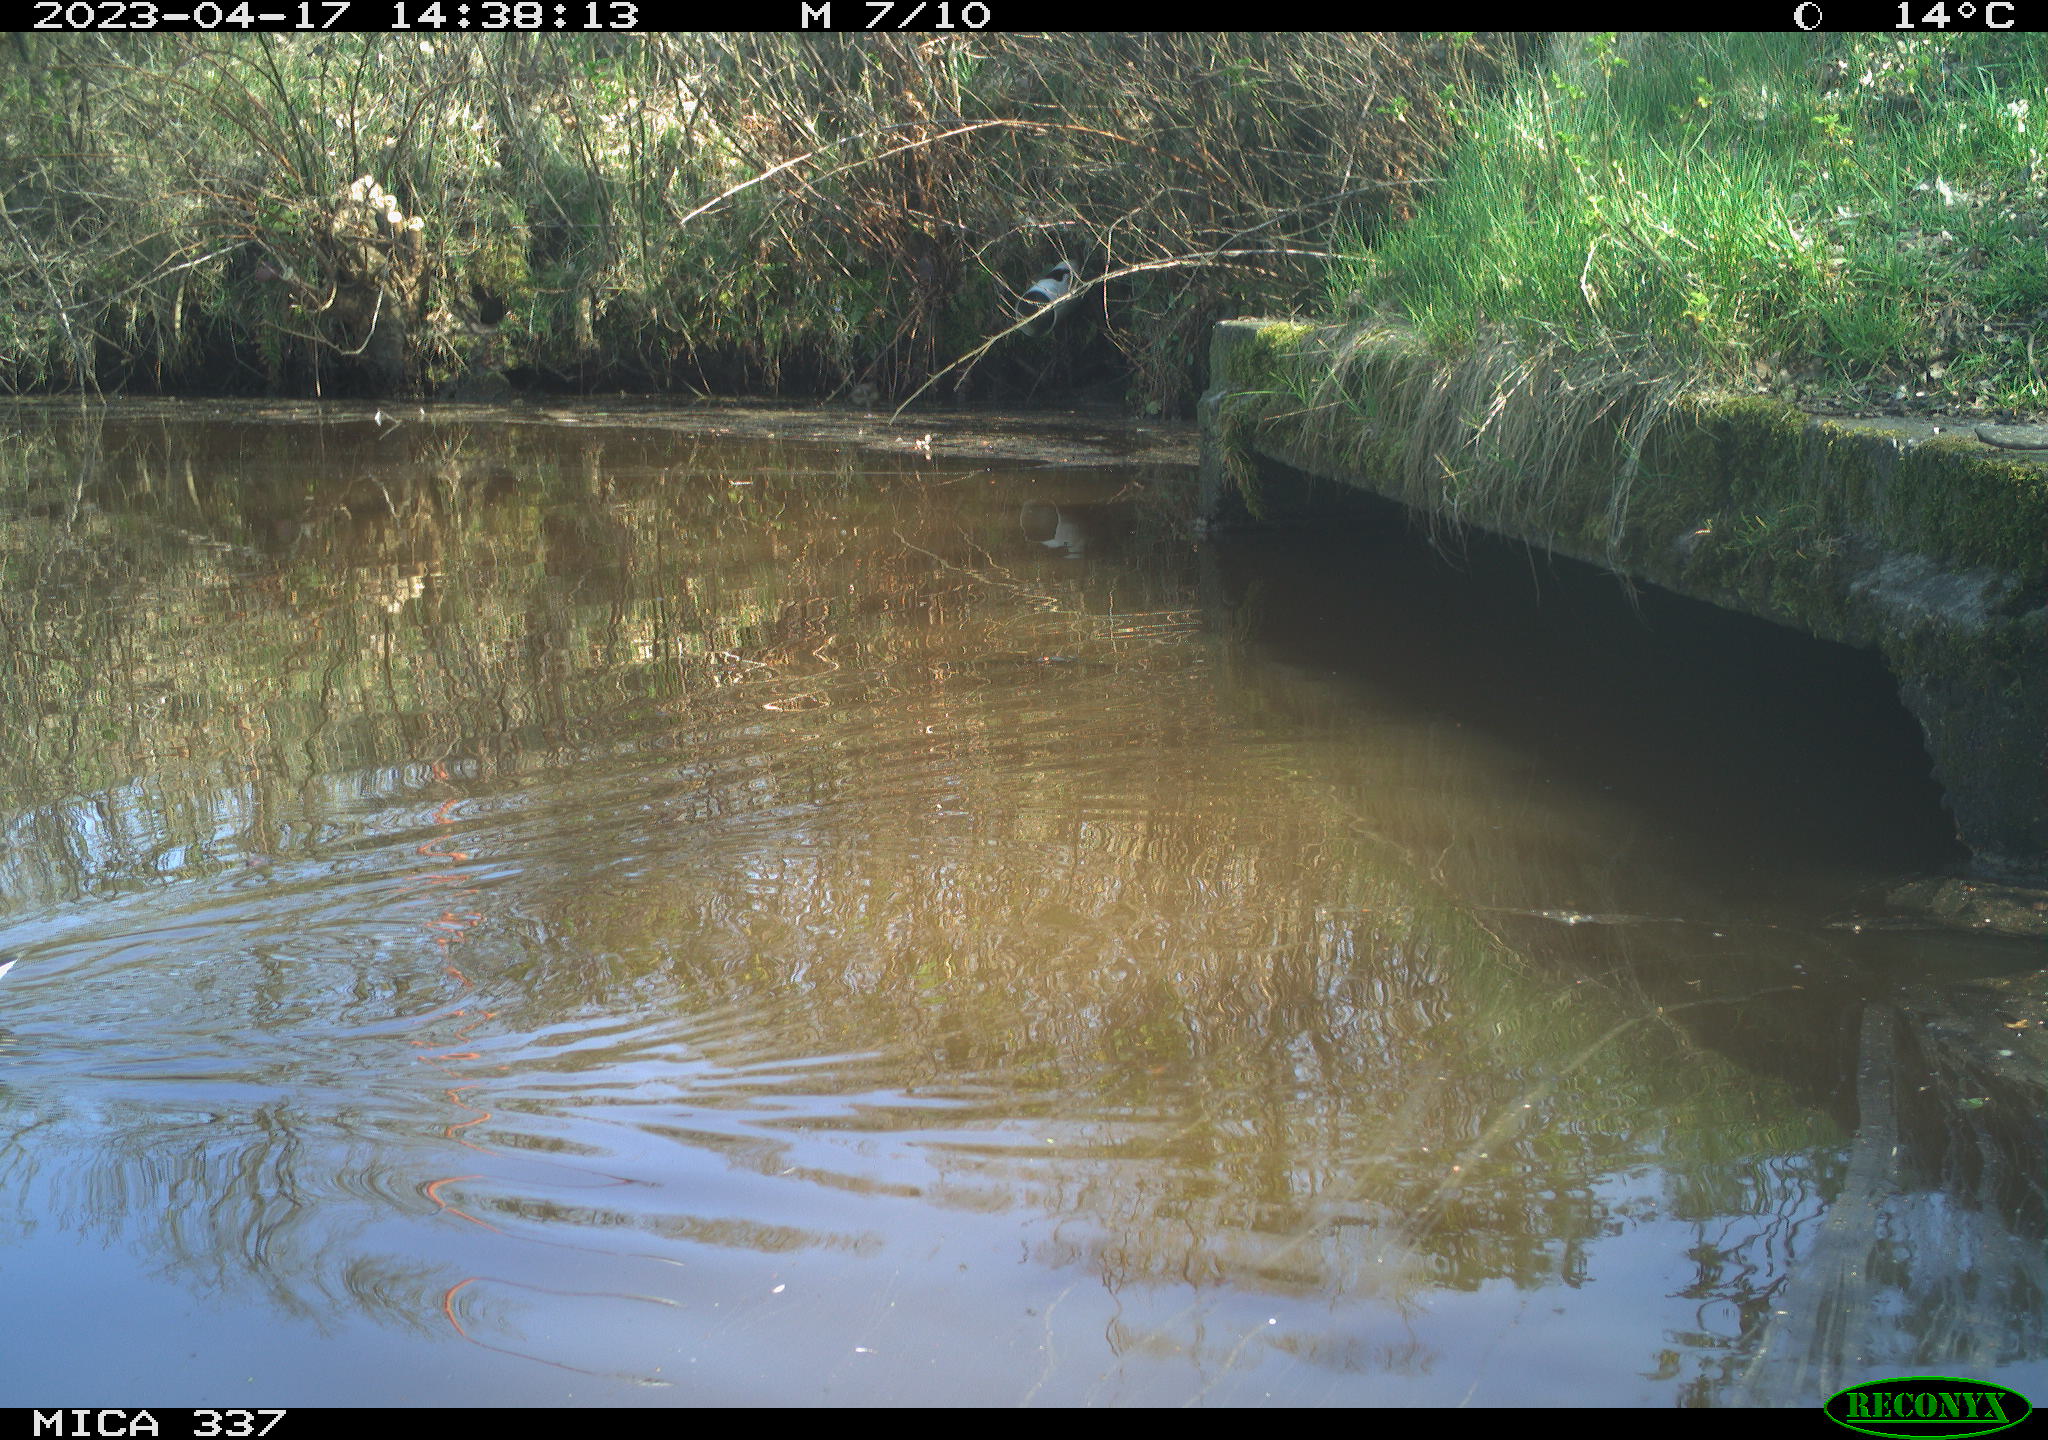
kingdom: Animalia
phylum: Chordata
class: Aves
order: Gruiformes
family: Rallidae
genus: Gallinula
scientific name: Gallinula chloropus
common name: Common moorhen
